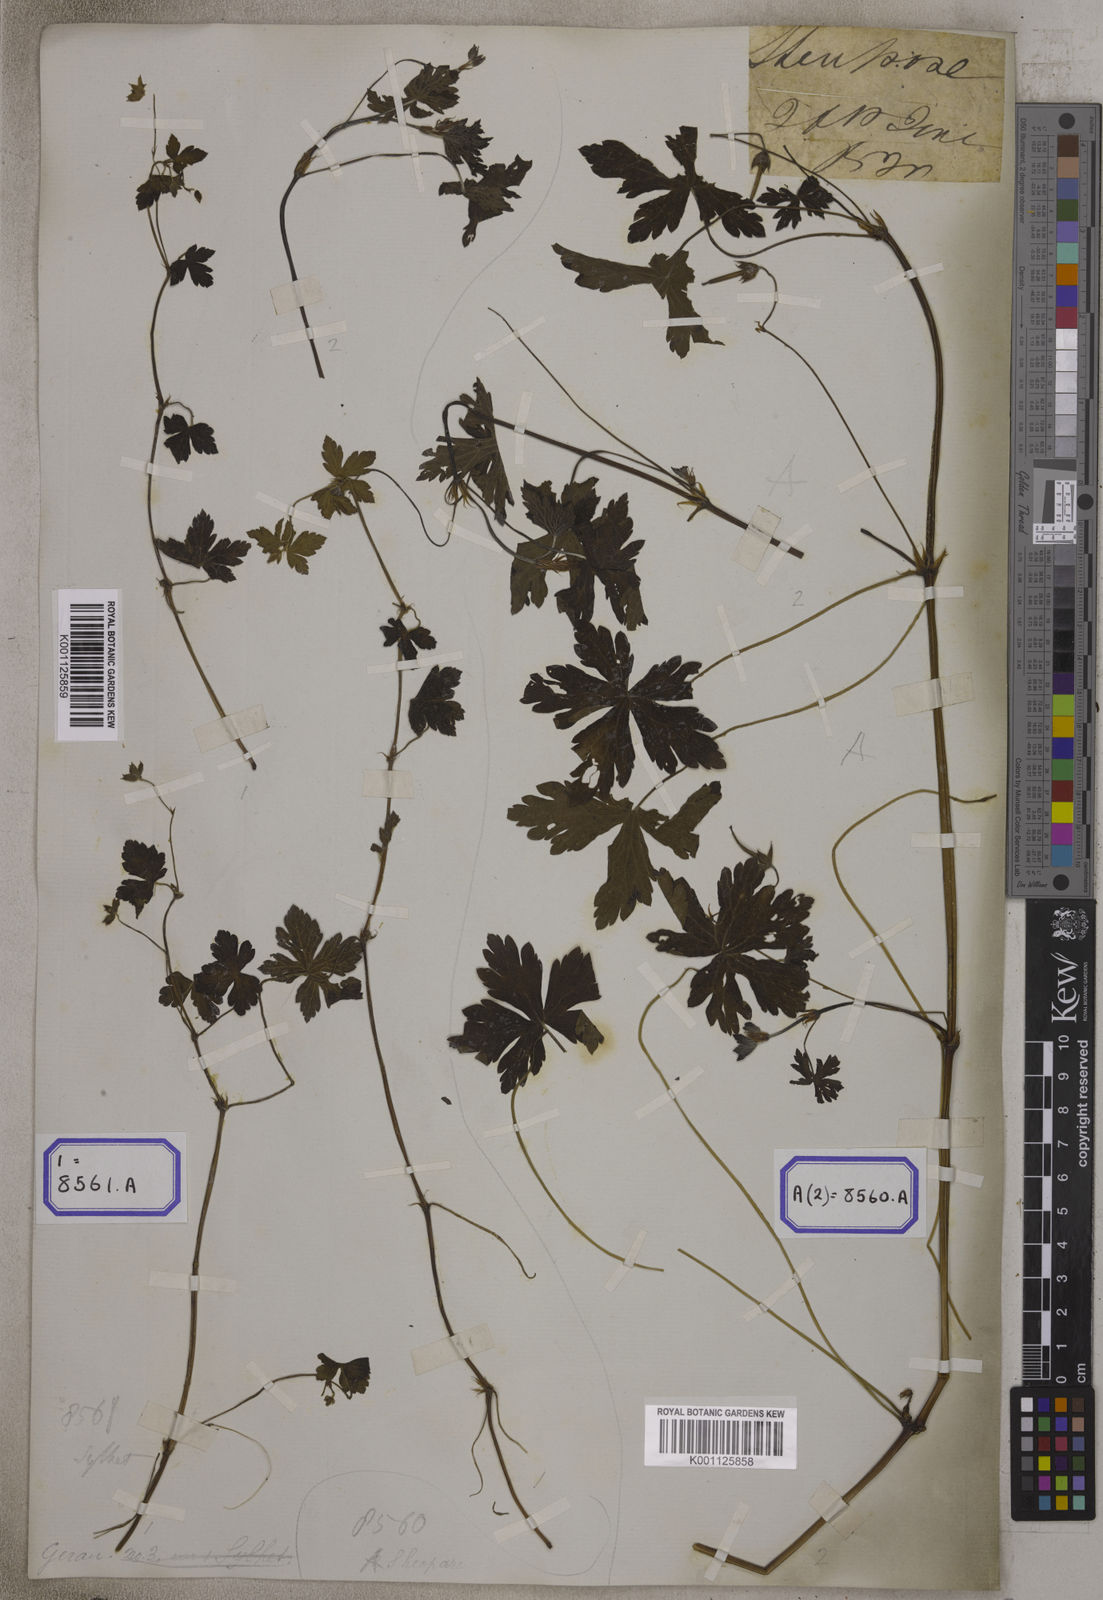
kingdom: Plantae
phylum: Tracheophyta
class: Magnoliopsida
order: Geraniales
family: Geraniaceae
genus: Geranium
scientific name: Geranium
